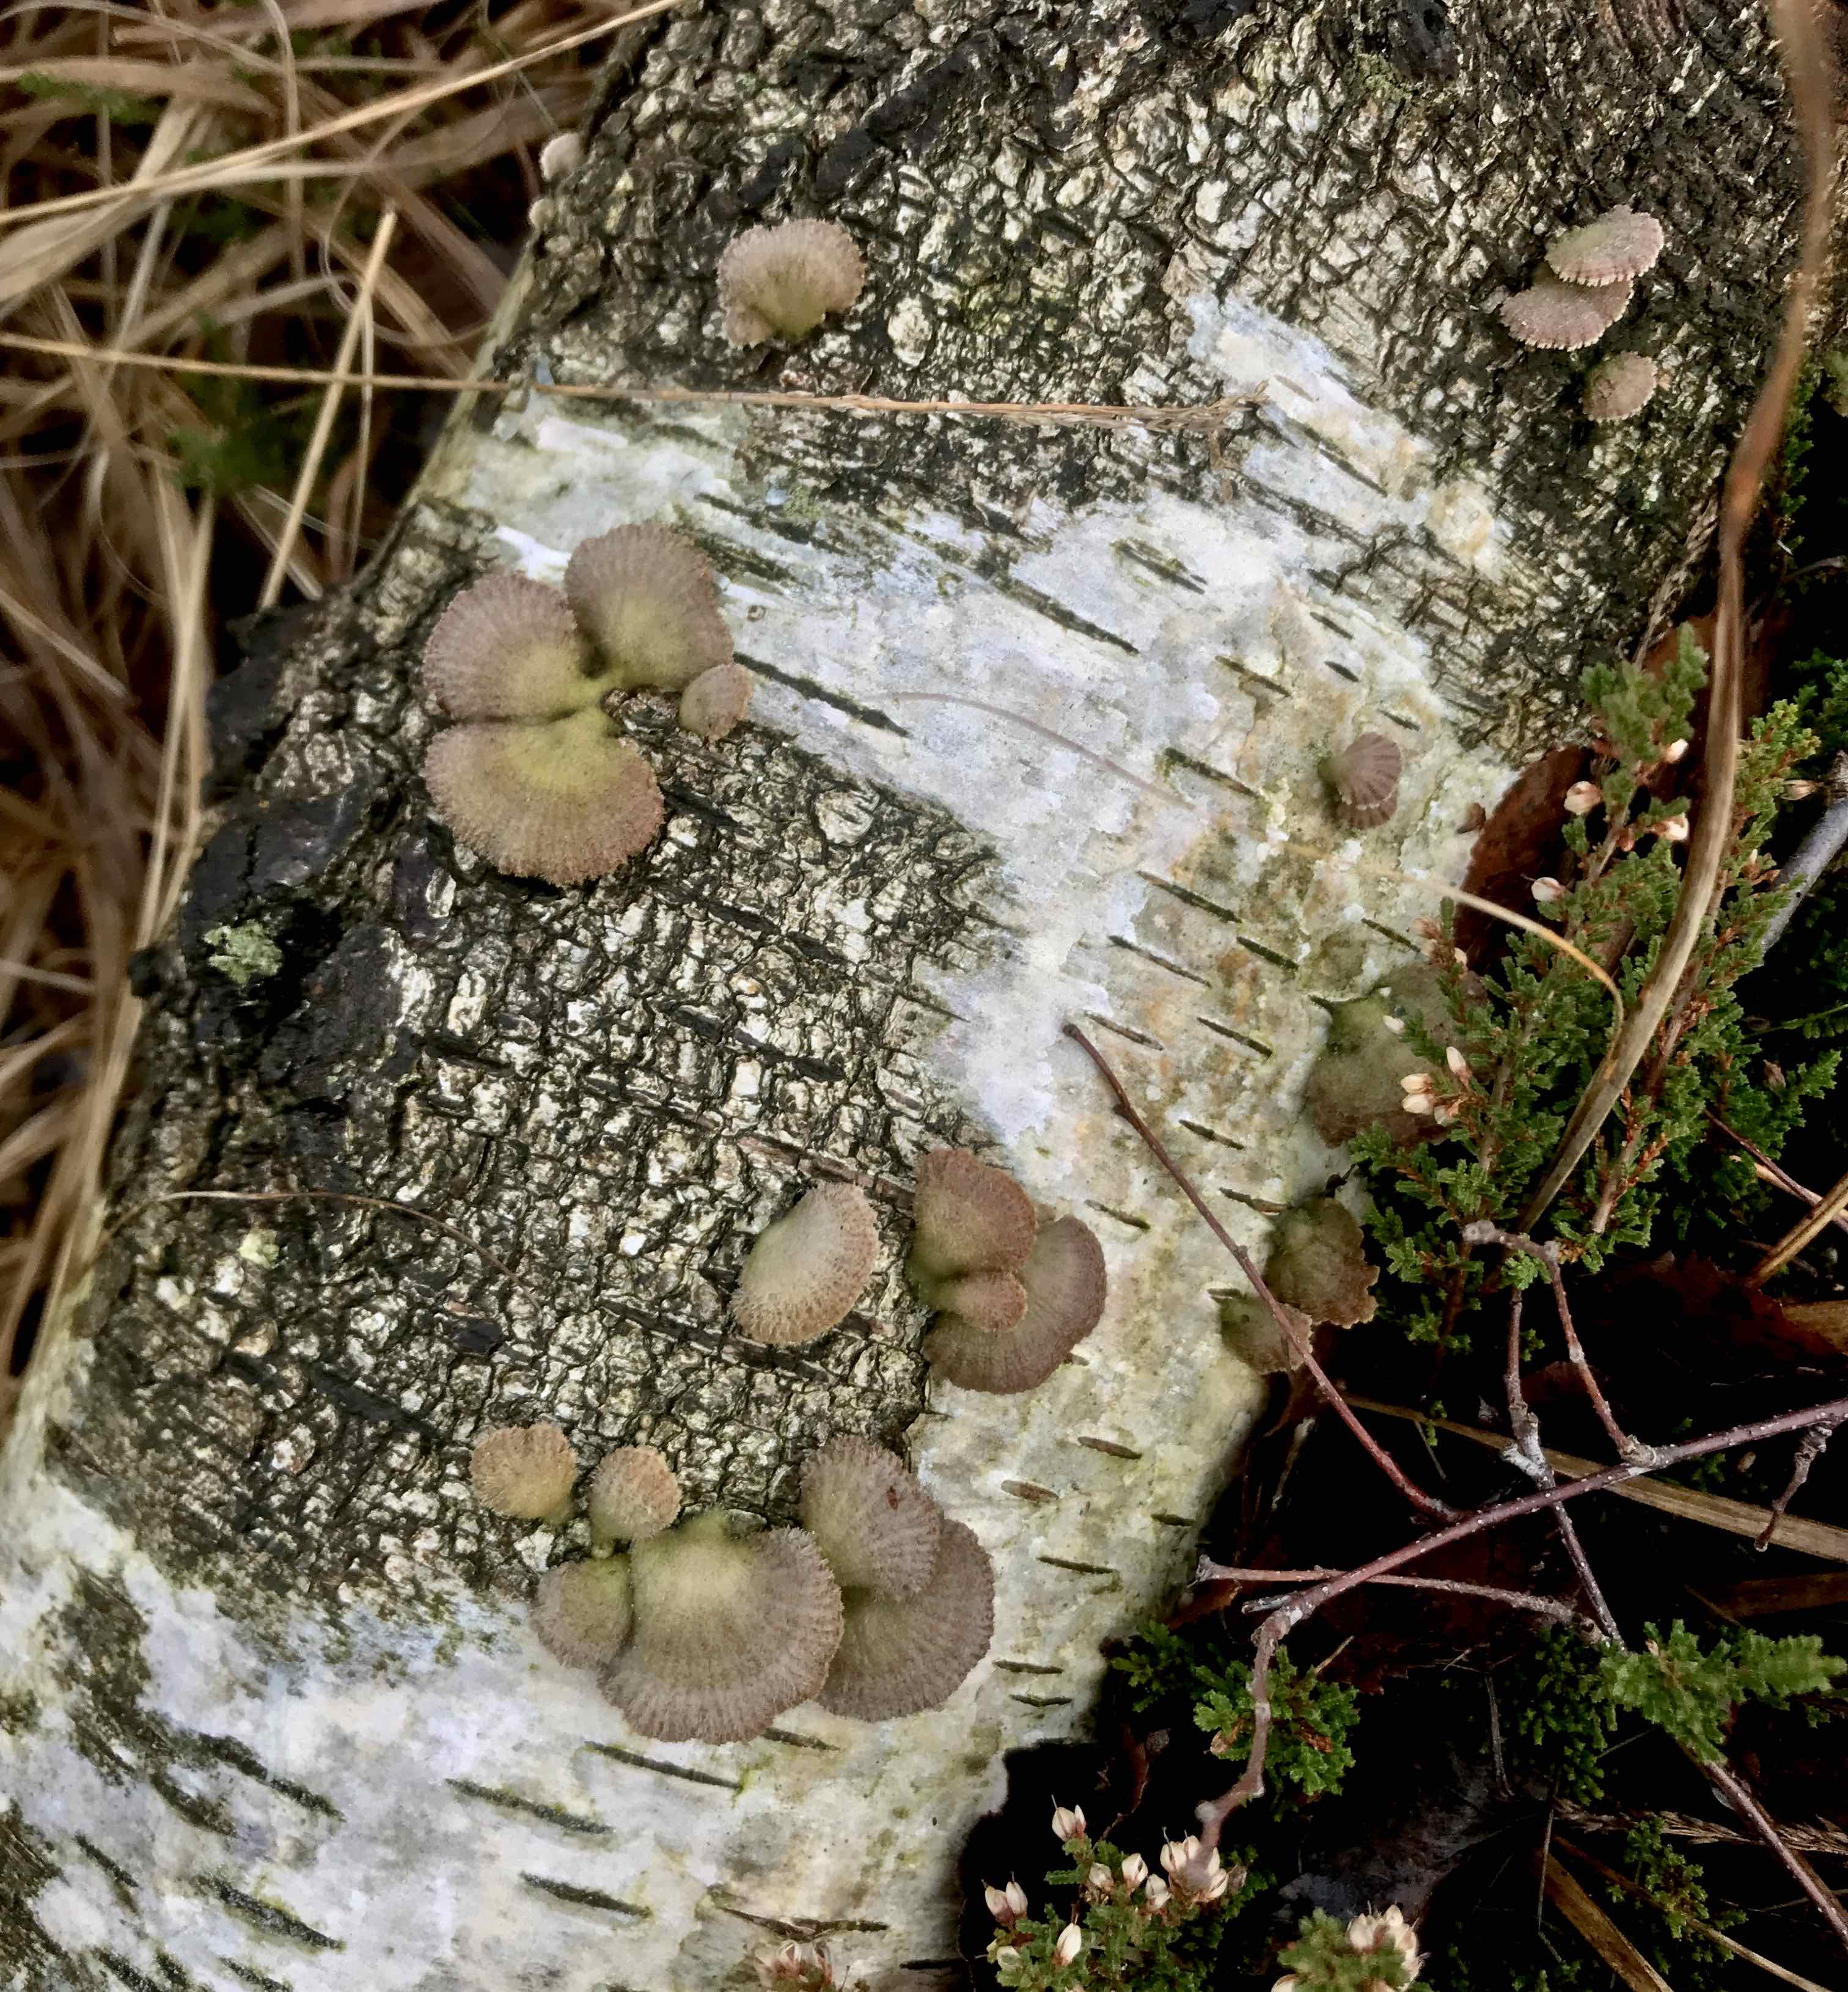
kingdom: Fungi
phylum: Basidiomycota
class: Agaricomycetes
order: Agaricales
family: Schizophyllaceae
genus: Schizophyllum
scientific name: Schizophyllum commune
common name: kløvblad
